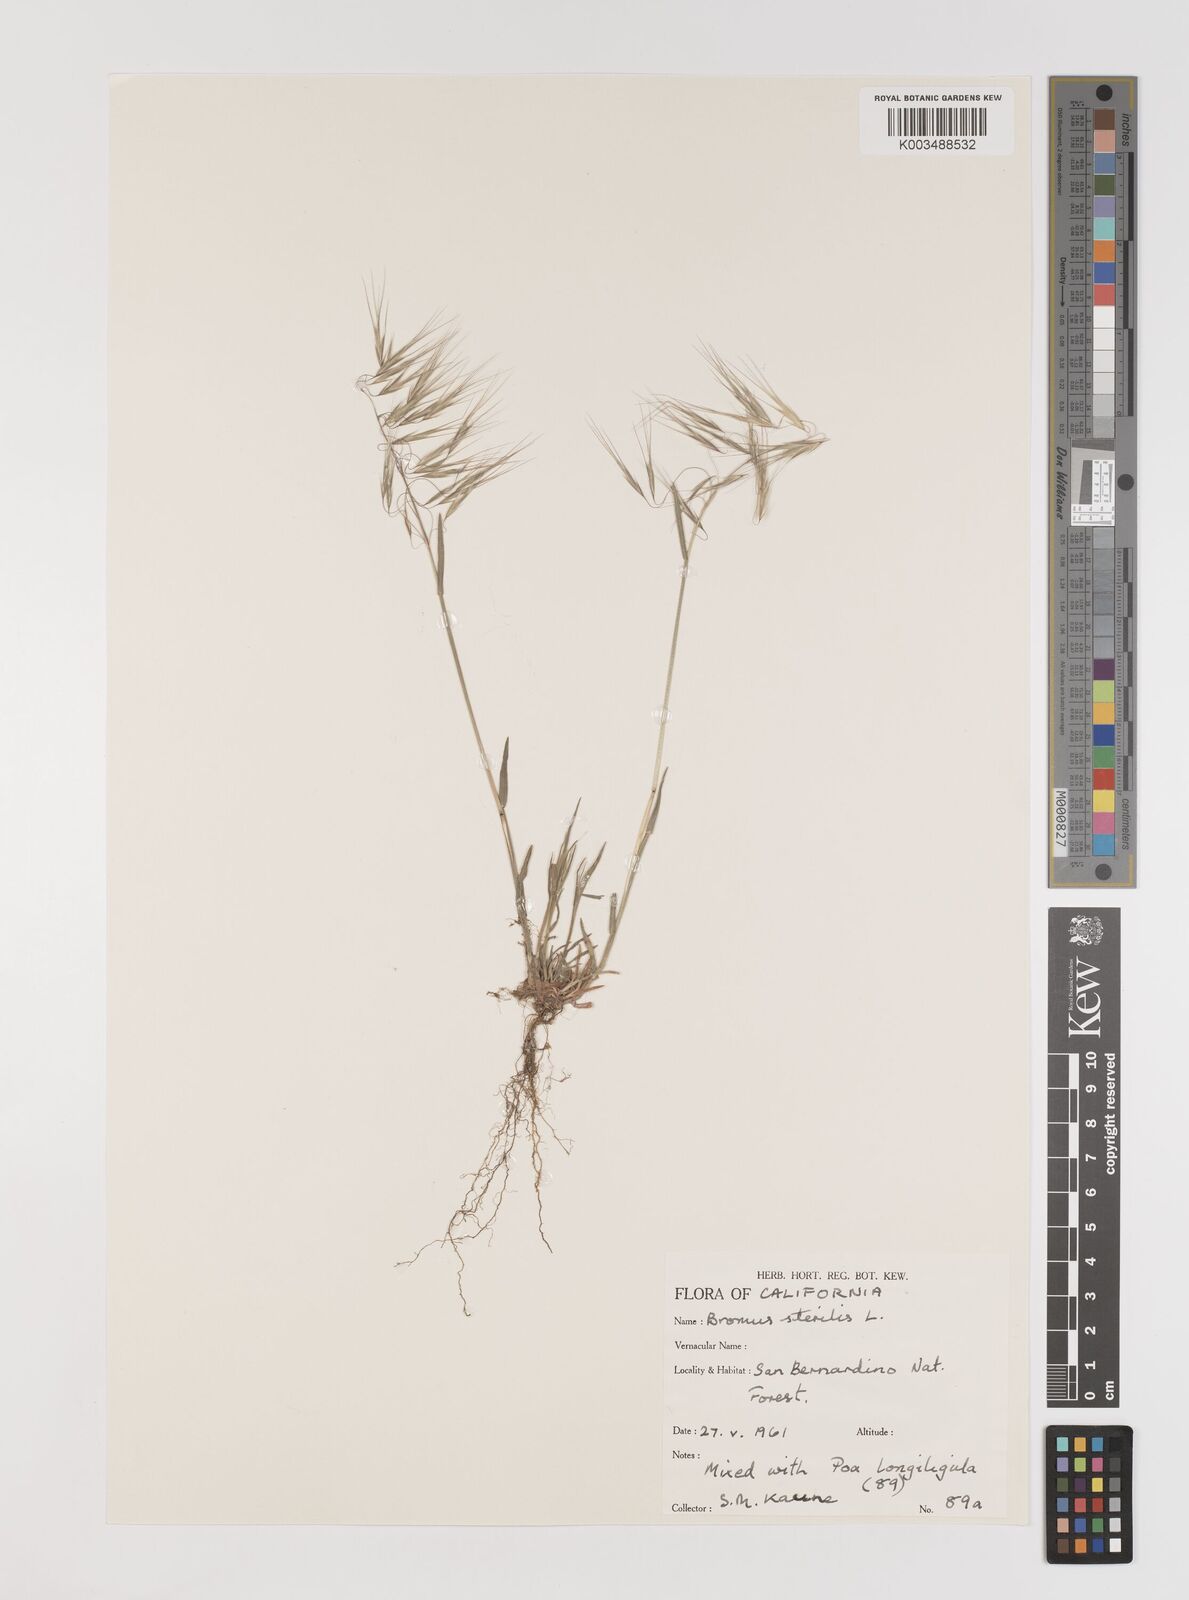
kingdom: Plantae
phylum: Tracheophyta
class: Liliopsida
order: Poales
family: Poaceae
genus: Bromus
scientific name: Bromus sterilis
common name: Poverty brome
